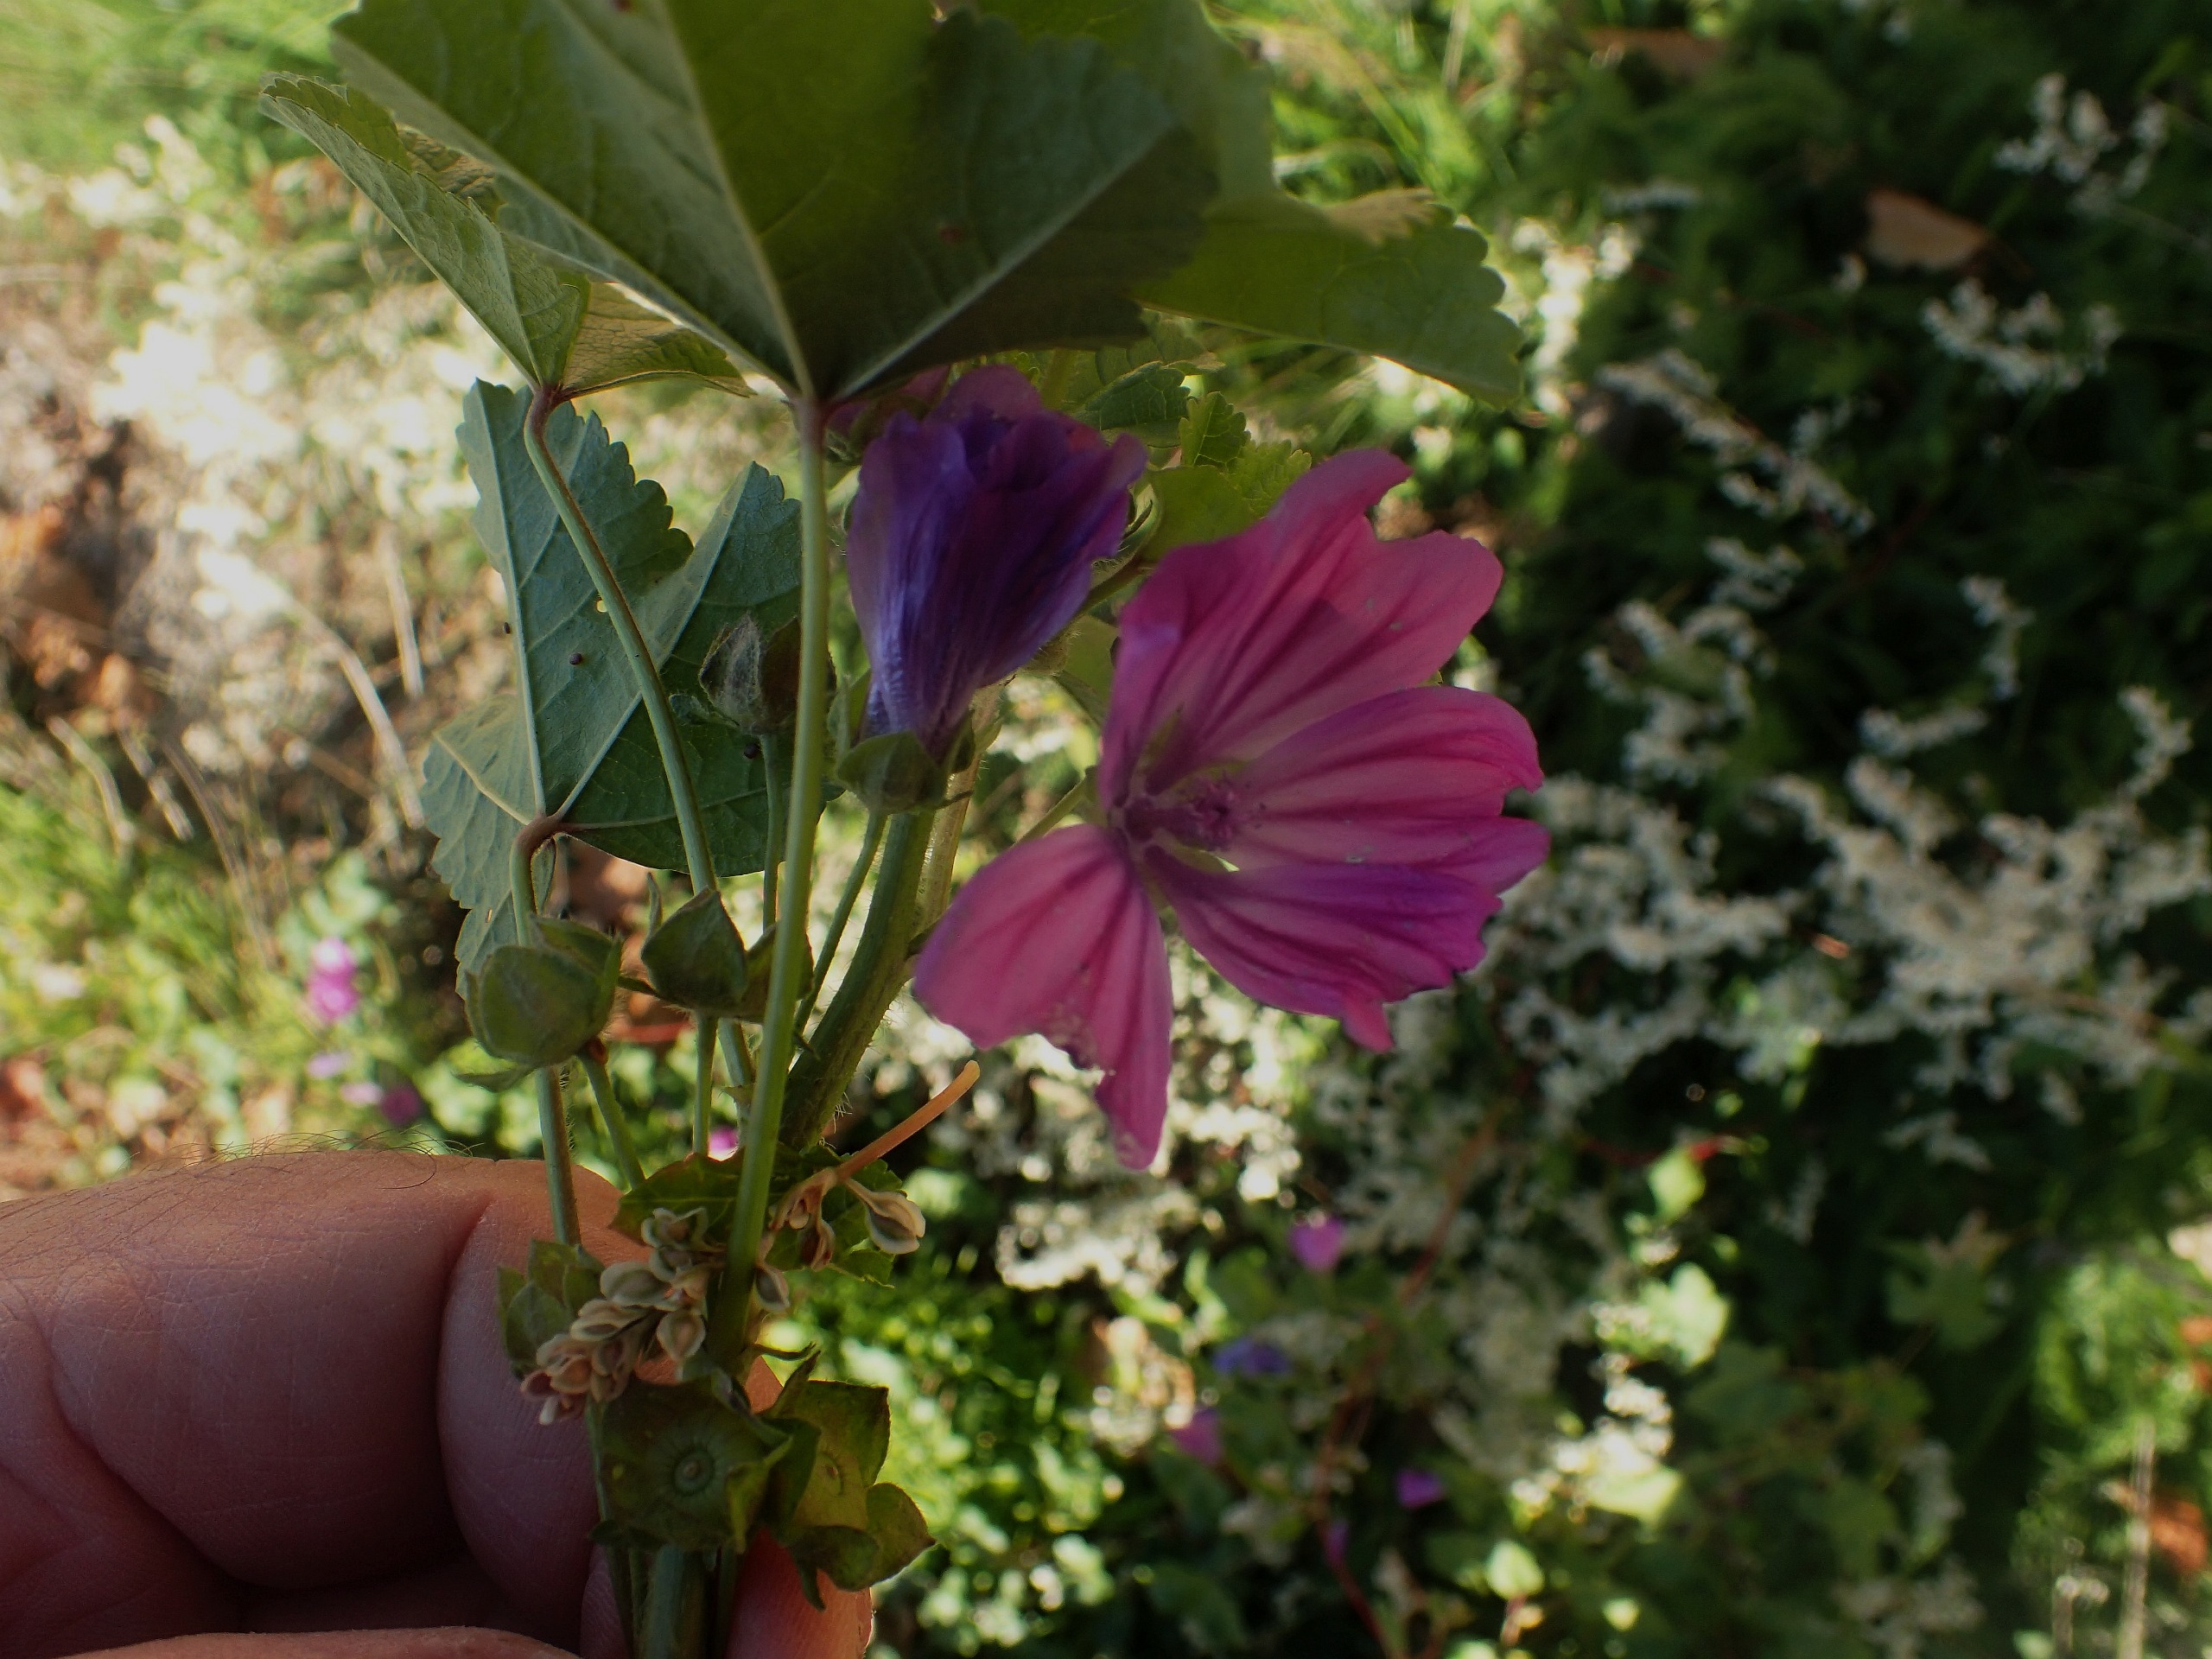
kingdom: Plantae
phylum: Tracheophyta
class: Magnoliopsida
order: Malvales
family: Malvaceae
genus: Malva
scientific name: Malva sylvestris
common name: Almindelig katost
